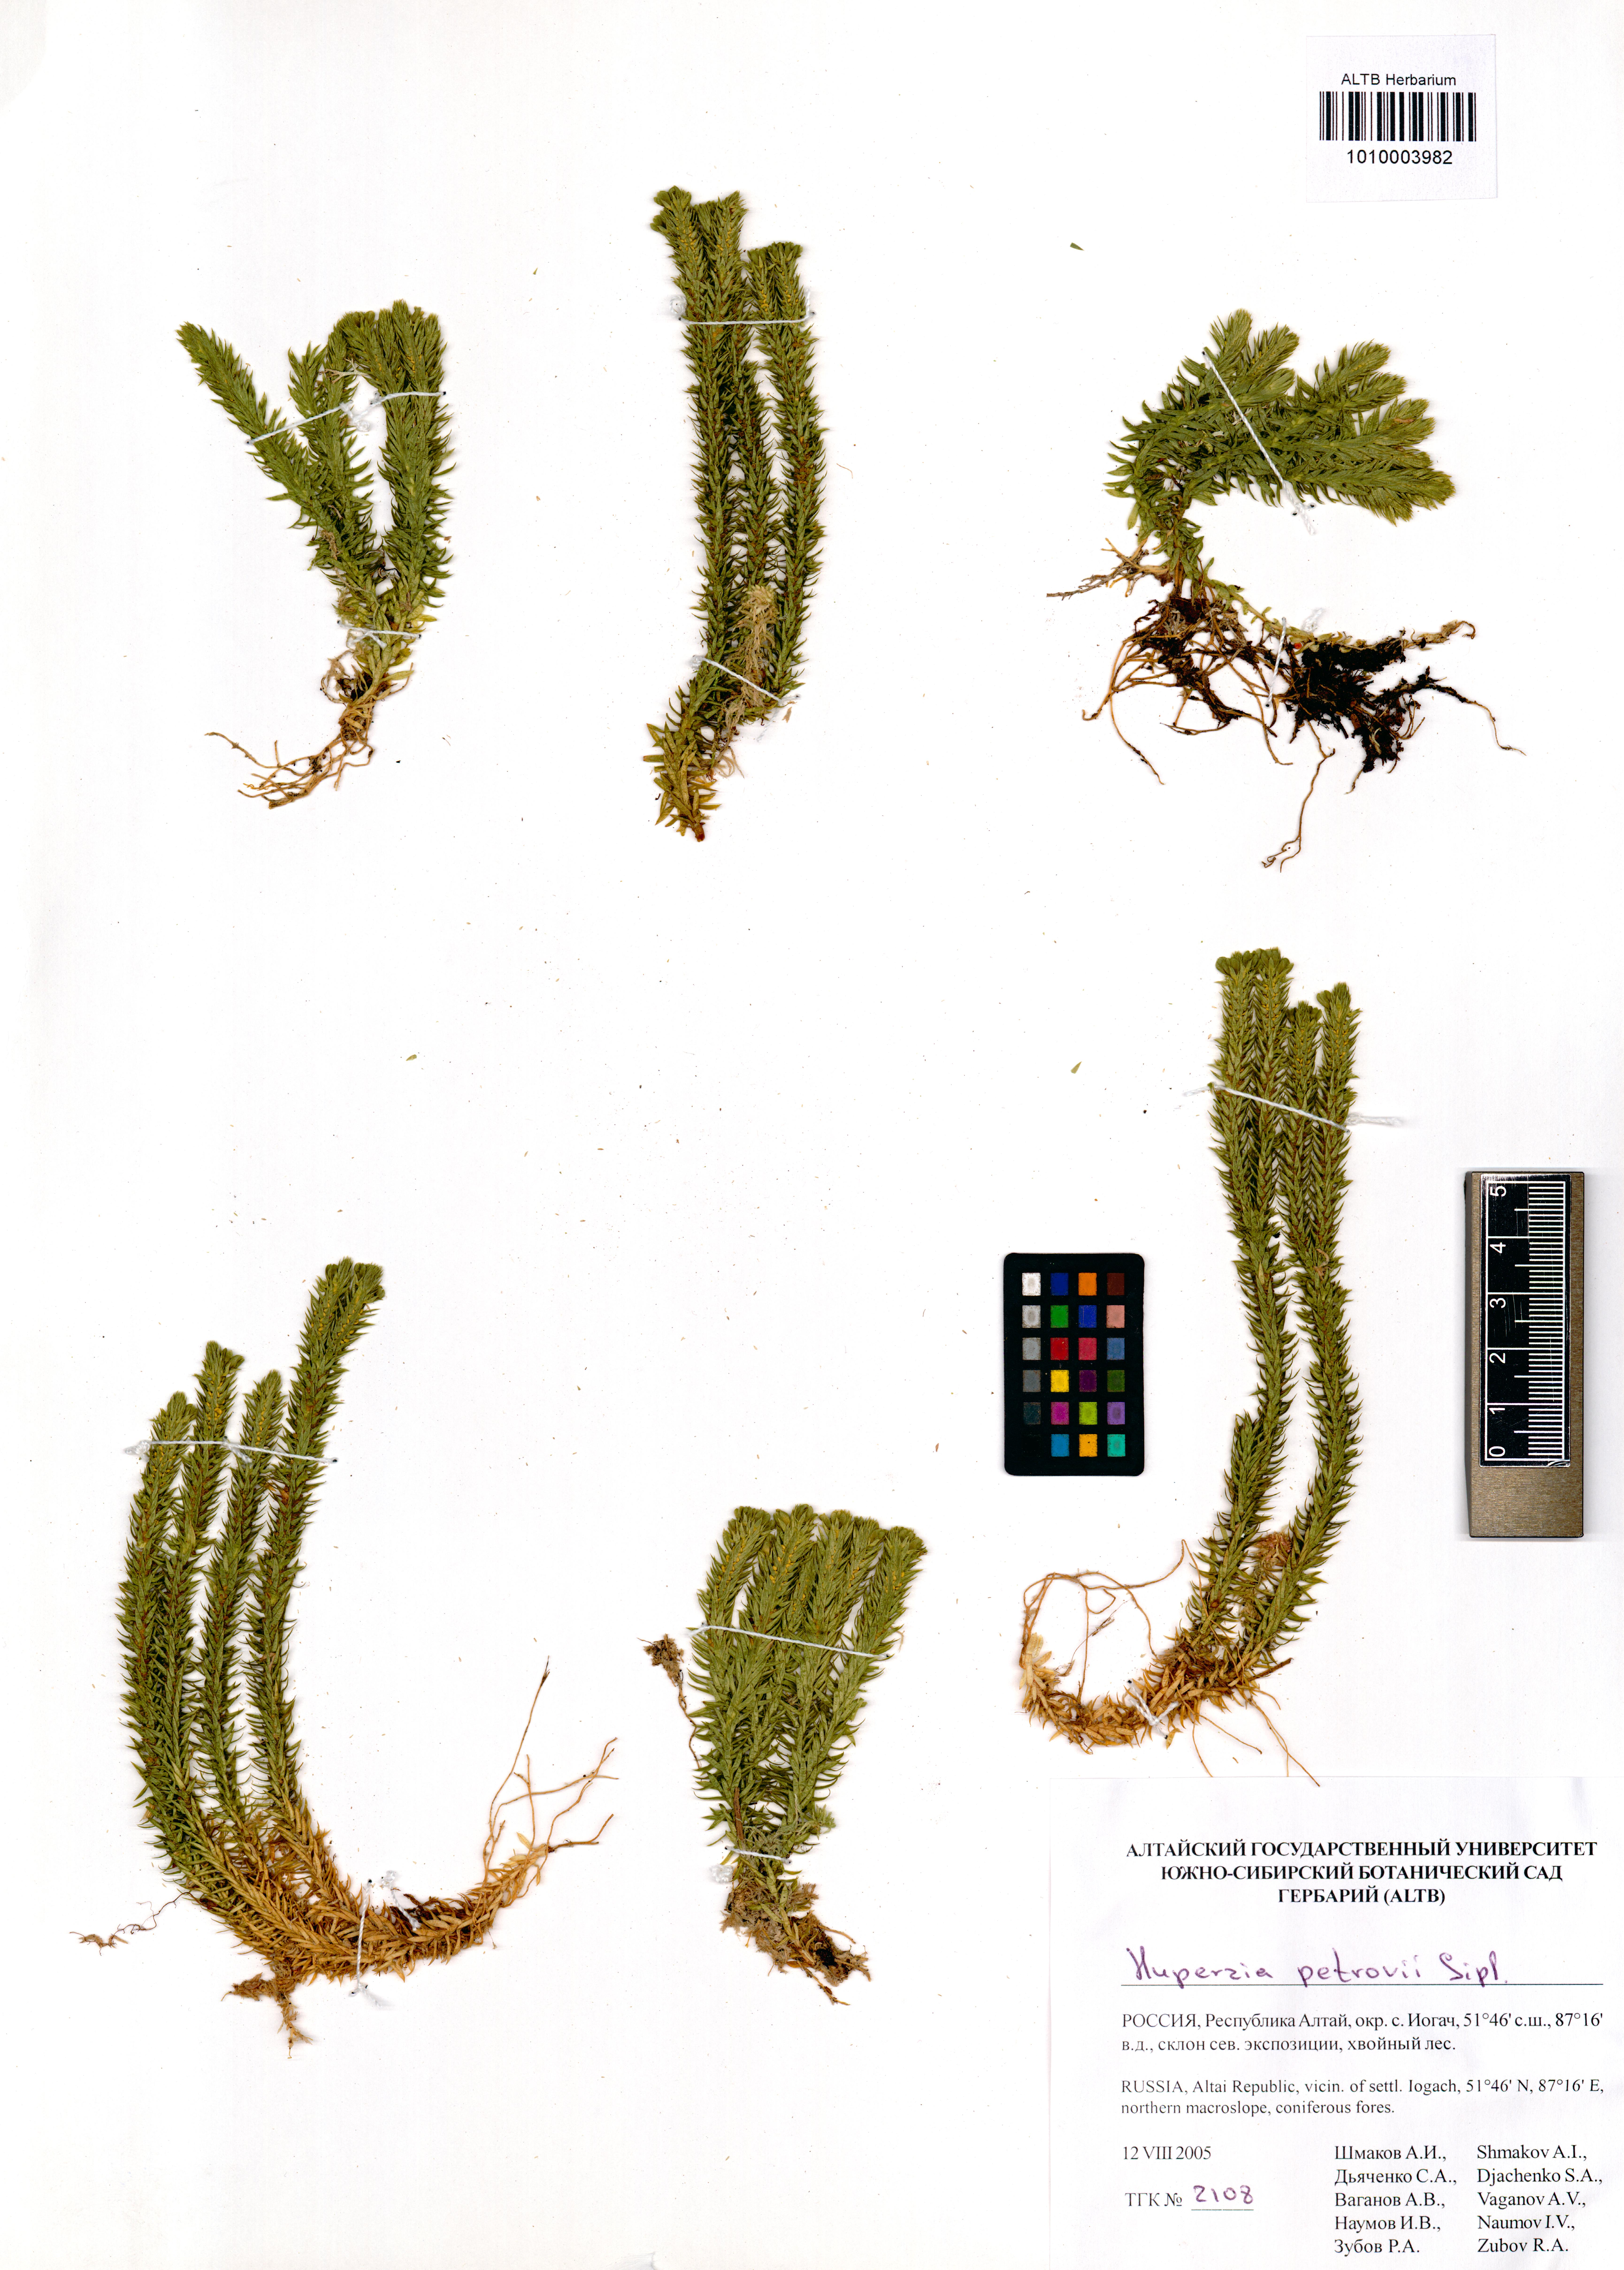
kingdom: Plantae
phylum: Tracheophyta
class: Lycopodiopsida
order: Lycopodiales
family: Lycopodiaceae
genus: Huperzia
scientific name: Huperzia selago
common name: Northern firmoss
